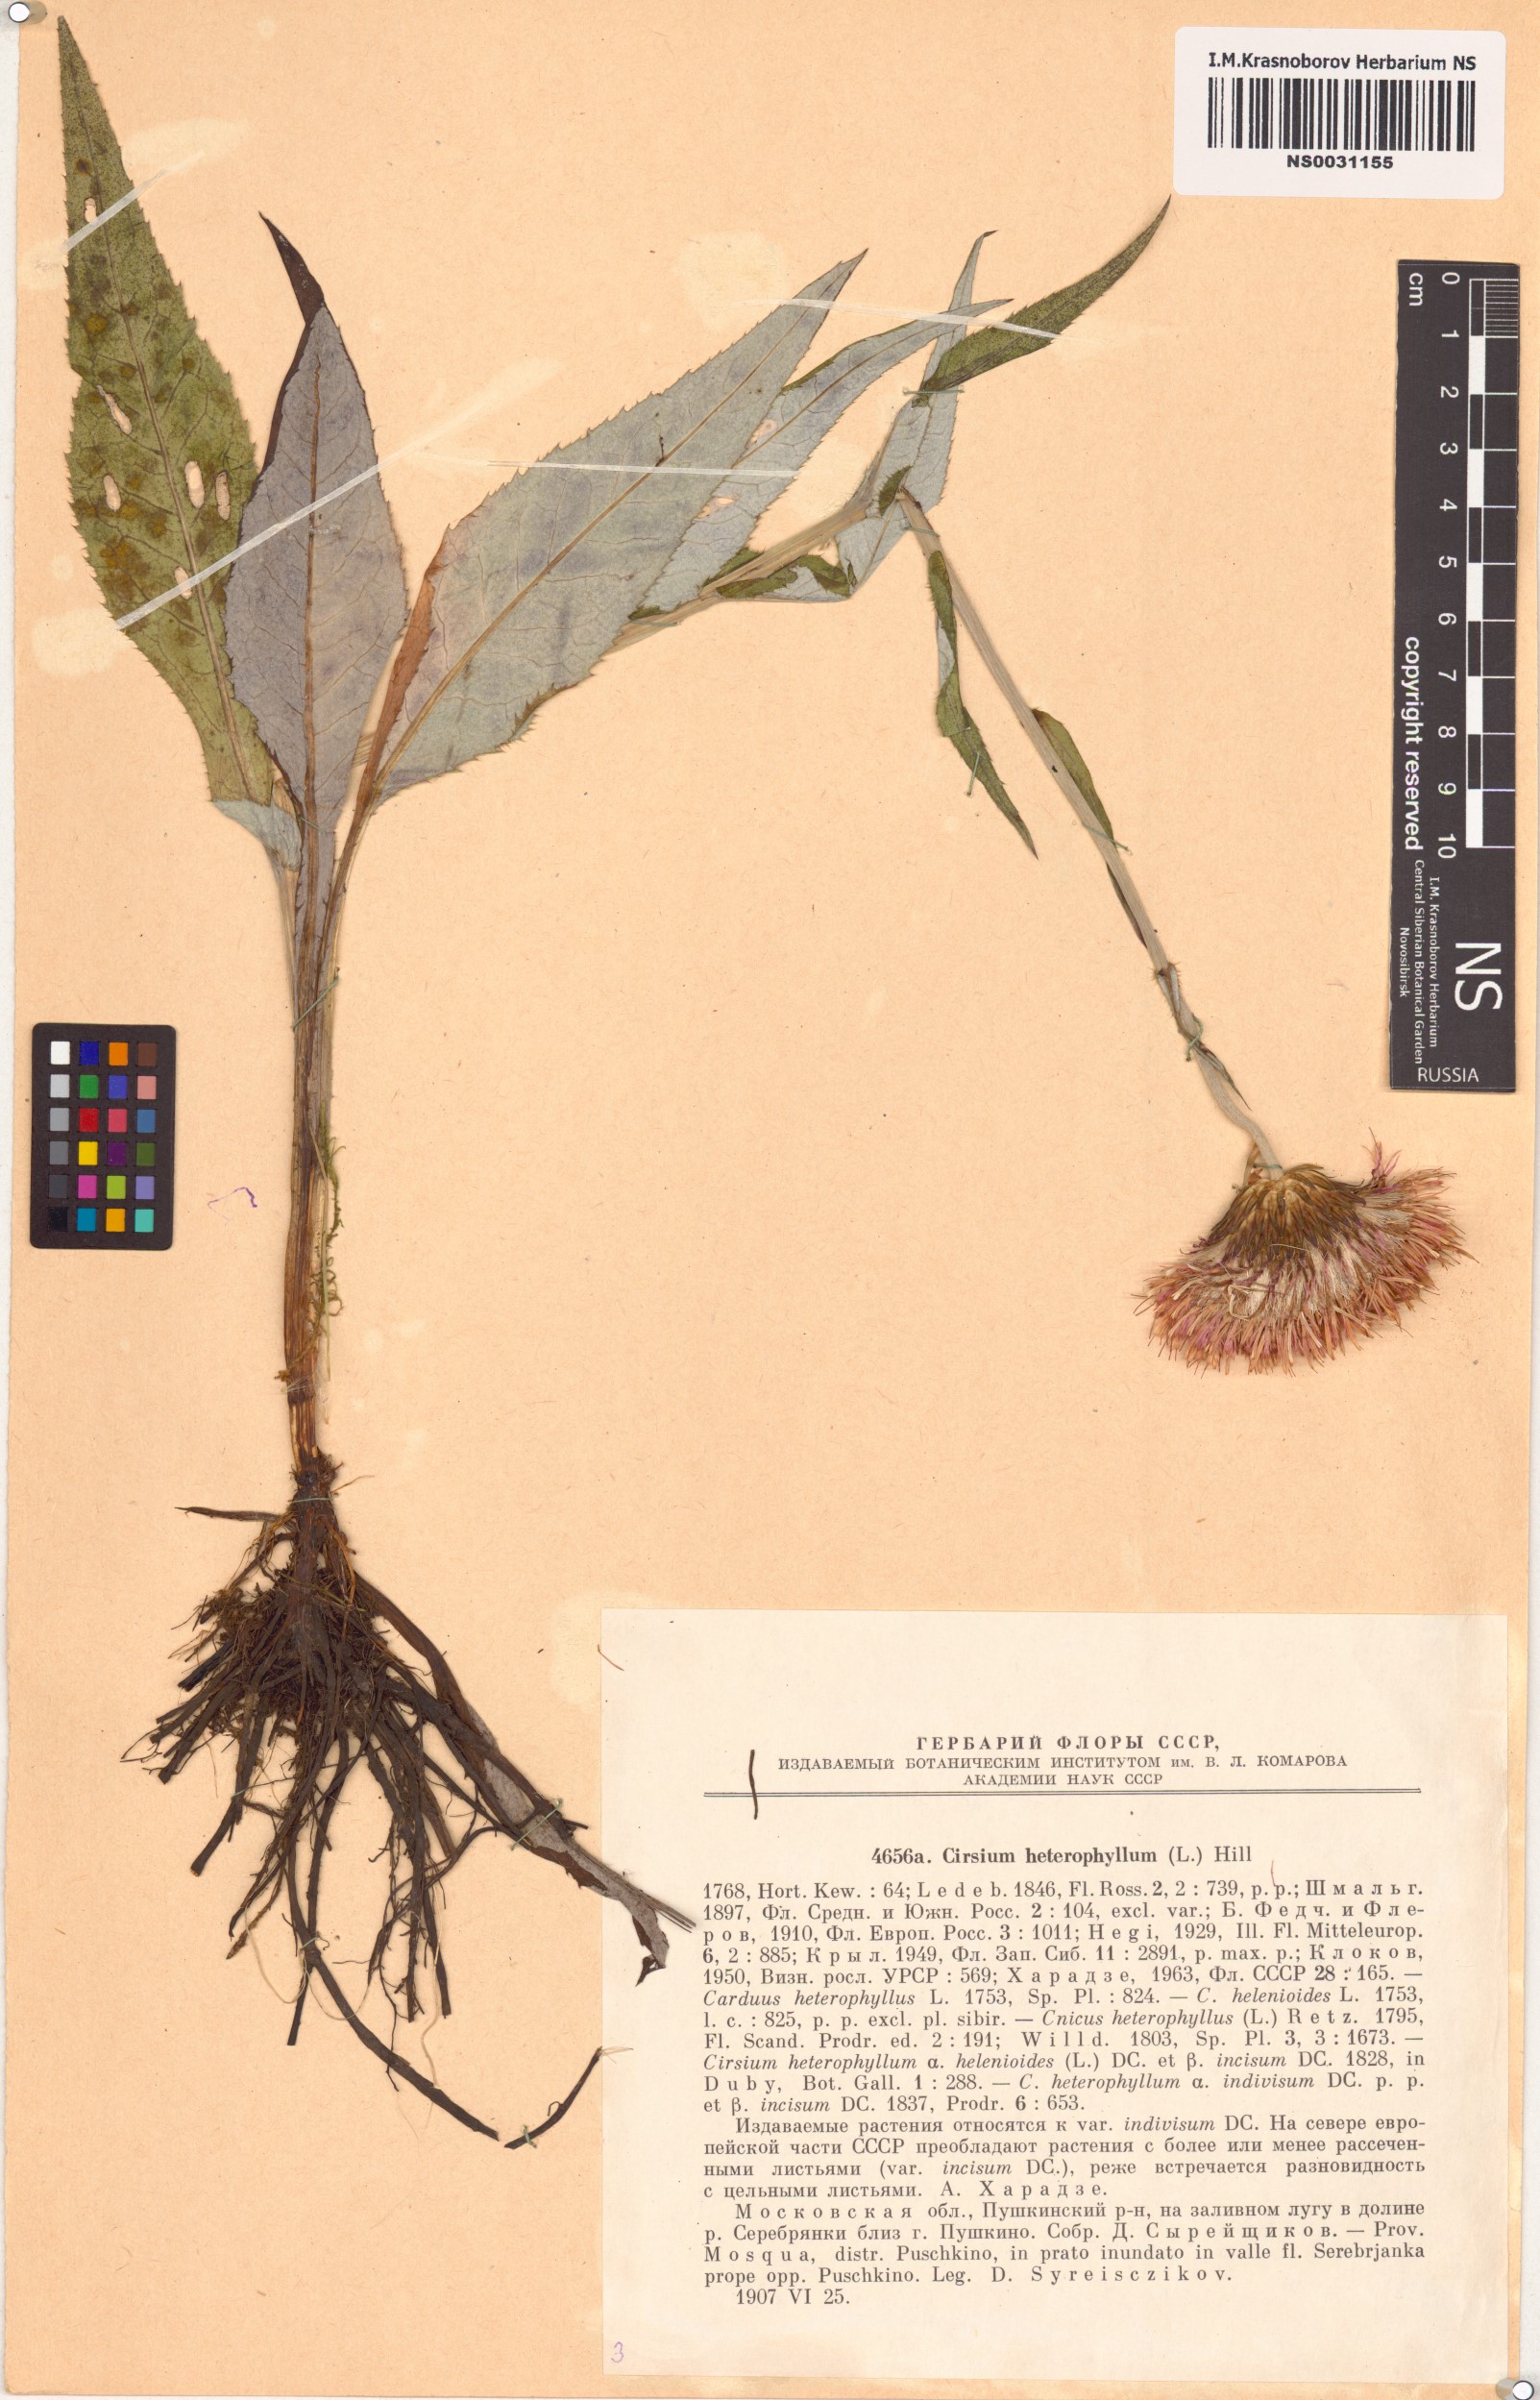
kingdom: Plantae
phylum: Tracheophyta
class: Magnoliopsida
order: Asterales
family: Asteraceae
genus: Cirsium
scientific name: Cirsium heterophyllum
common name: Melancholy thistle
